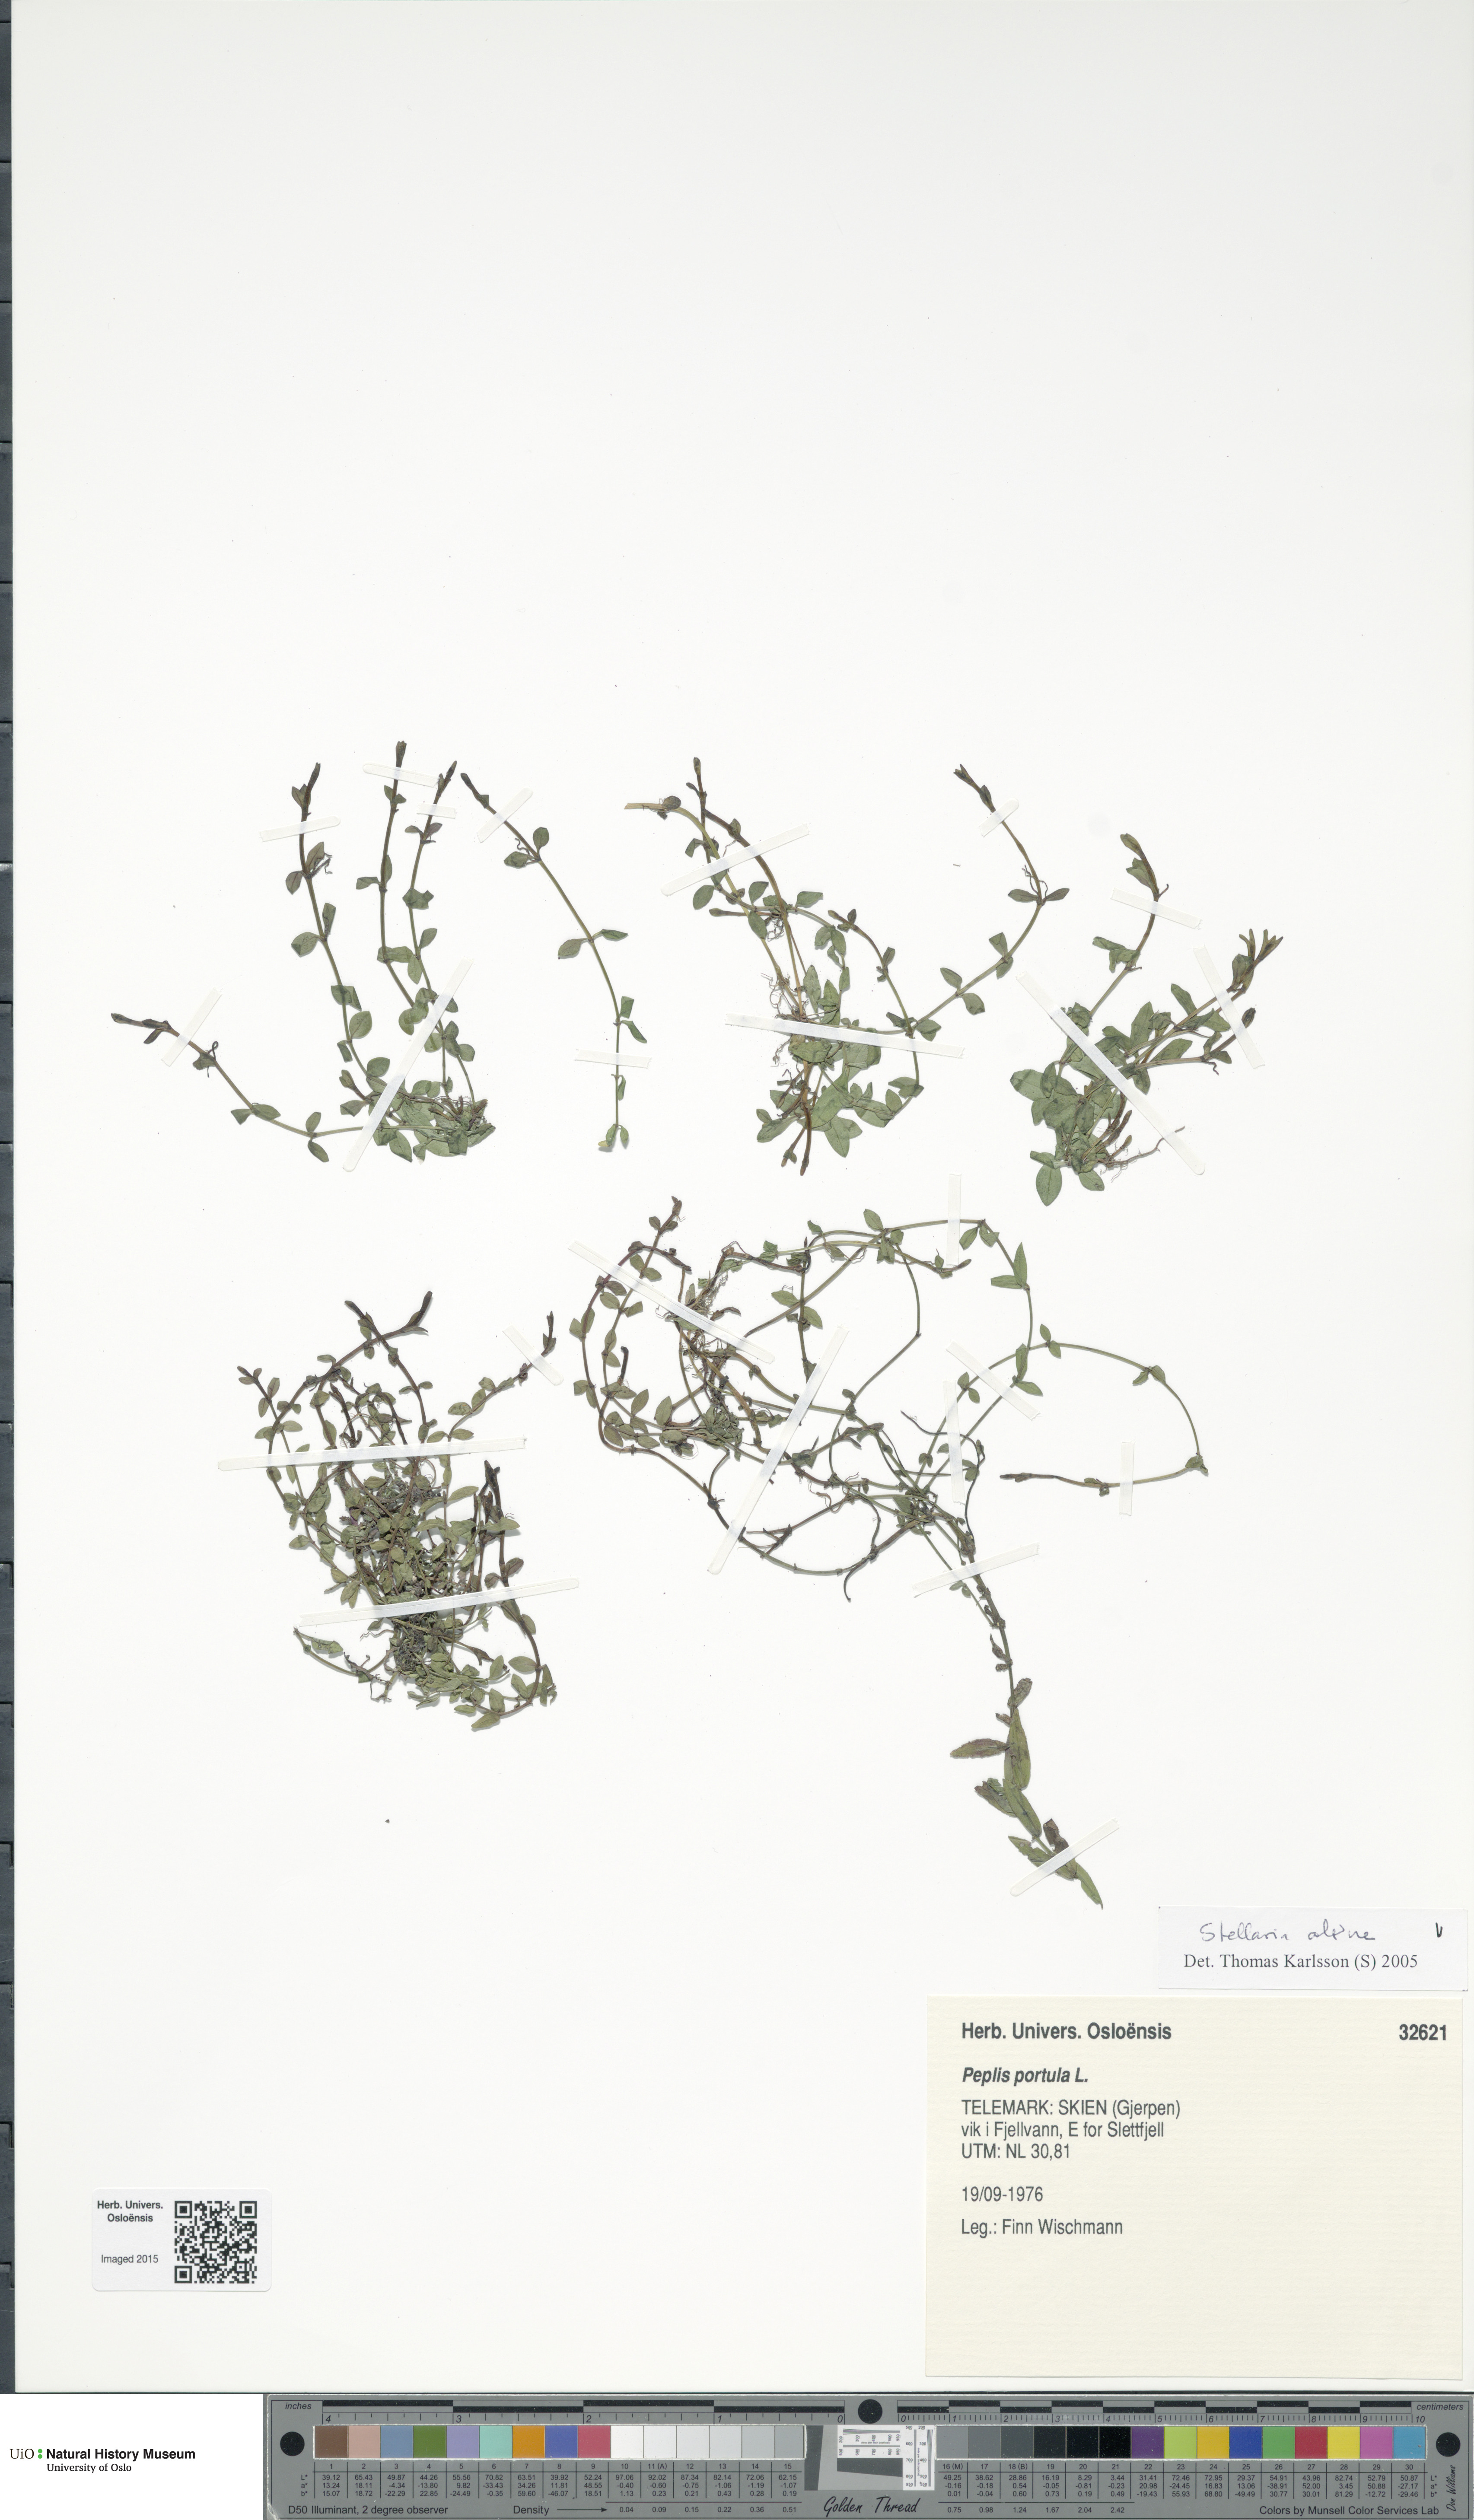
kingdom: Plantae
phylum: Tracheophyta
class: Magnoliopsida
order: Caryophyllales
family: Caryophyllaceae
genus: Stellaria
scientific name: Stellaria alsine
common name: Bog stitchwort
